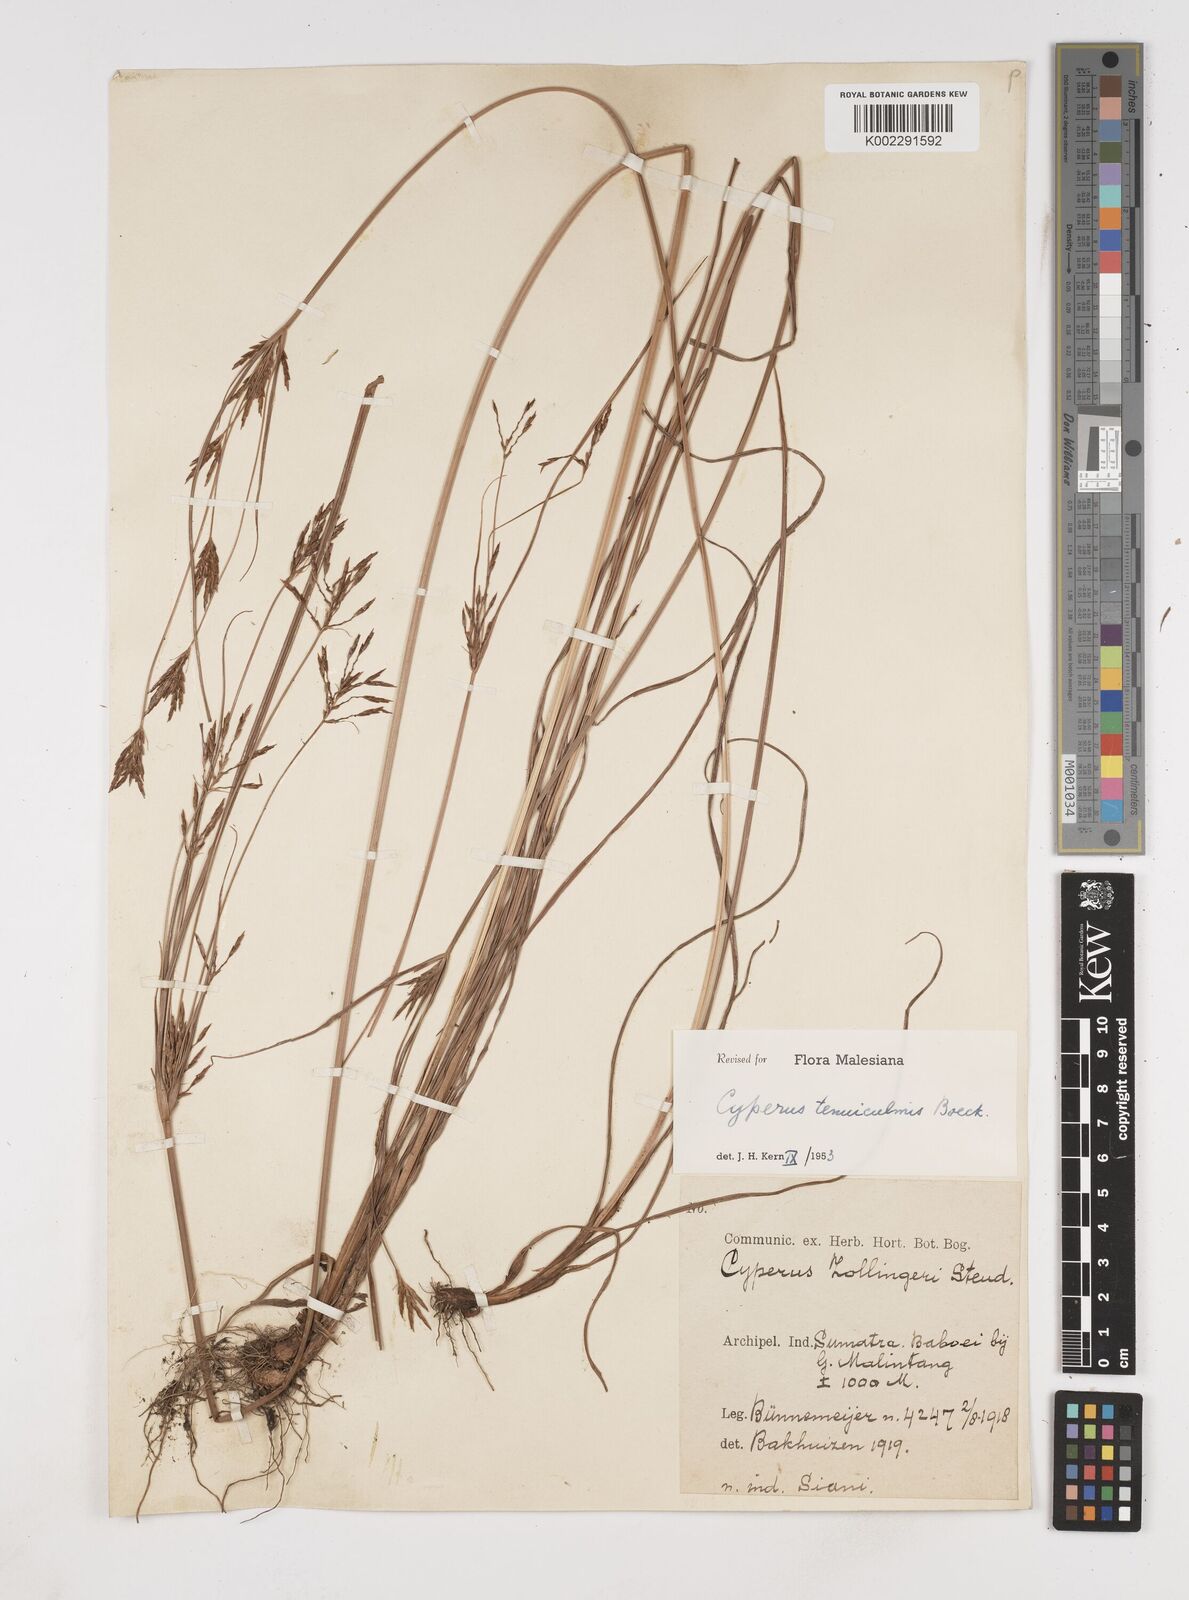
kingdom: Plantae
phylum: Tracheophyta
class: Liliopsida
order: Poales
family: Cyperaceae
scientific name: Cyperaceae
